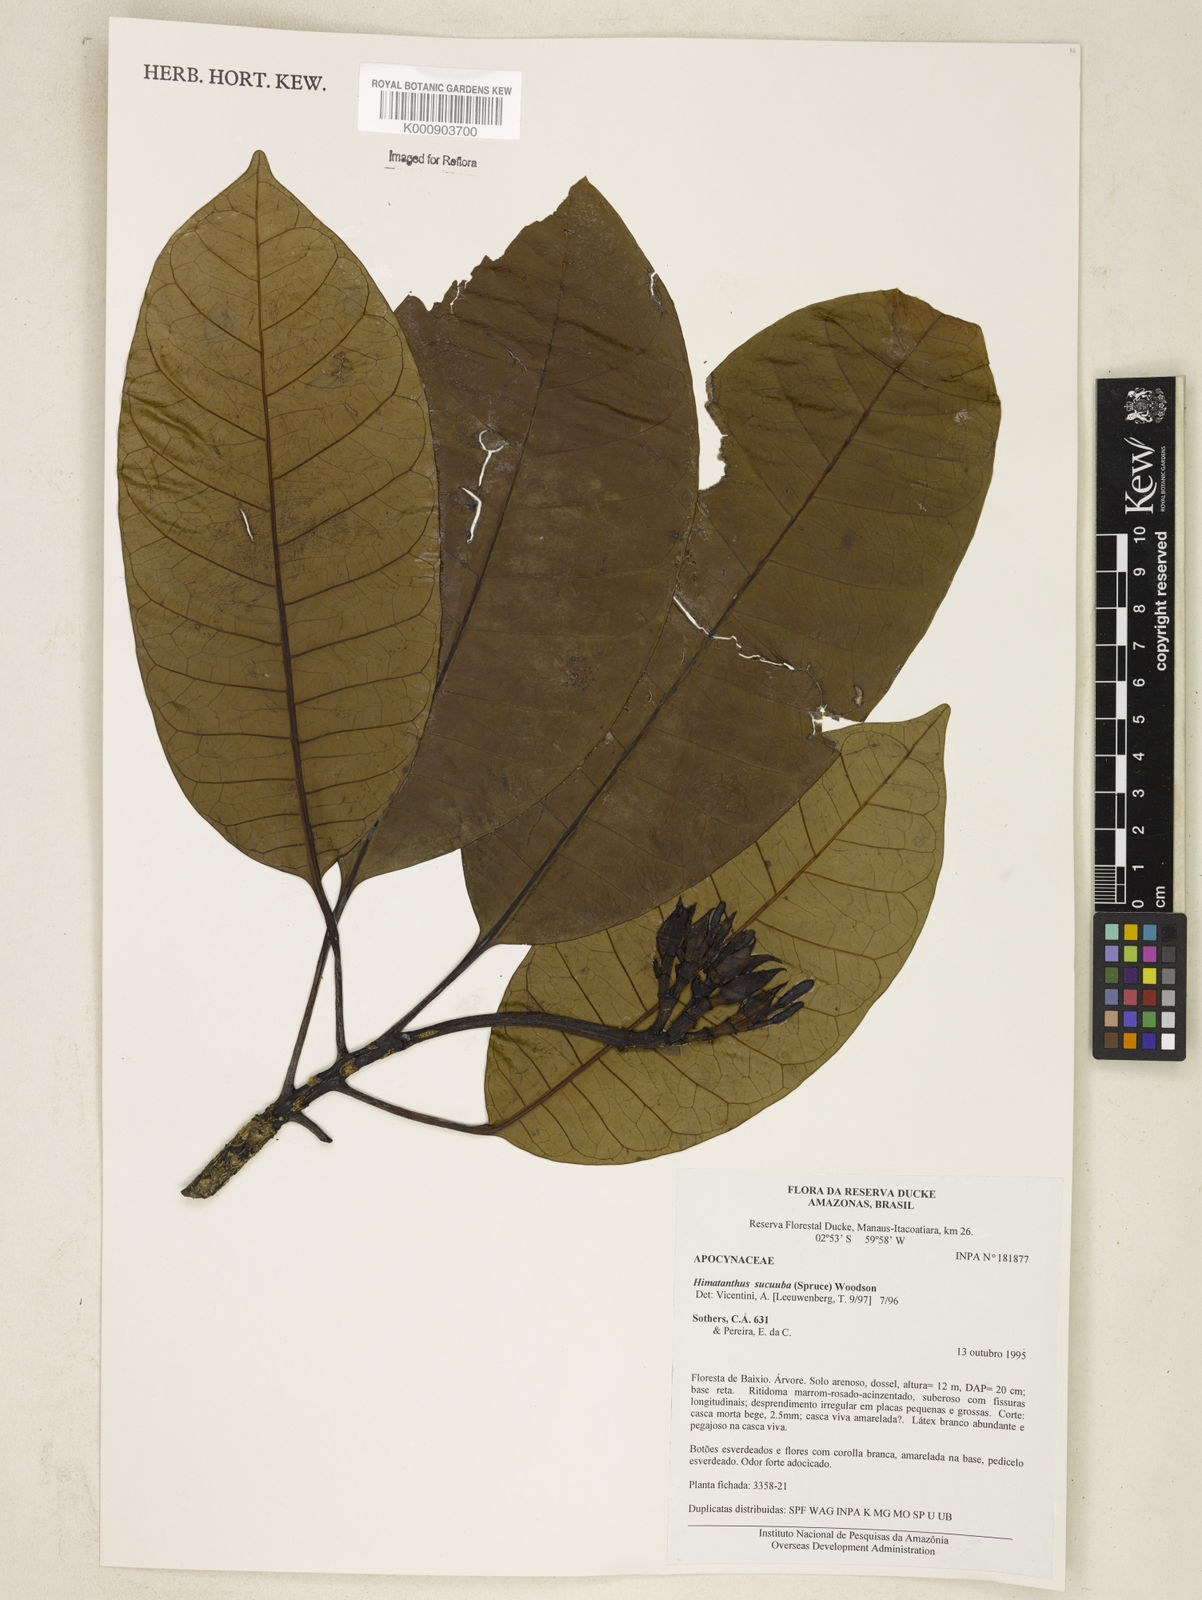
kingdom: Plantae
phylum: Tracheophyta
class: Magnoliopsida
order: Gentianales
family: Apocynaceae
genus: Himatanthus
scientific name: Himatanthus articulatus
